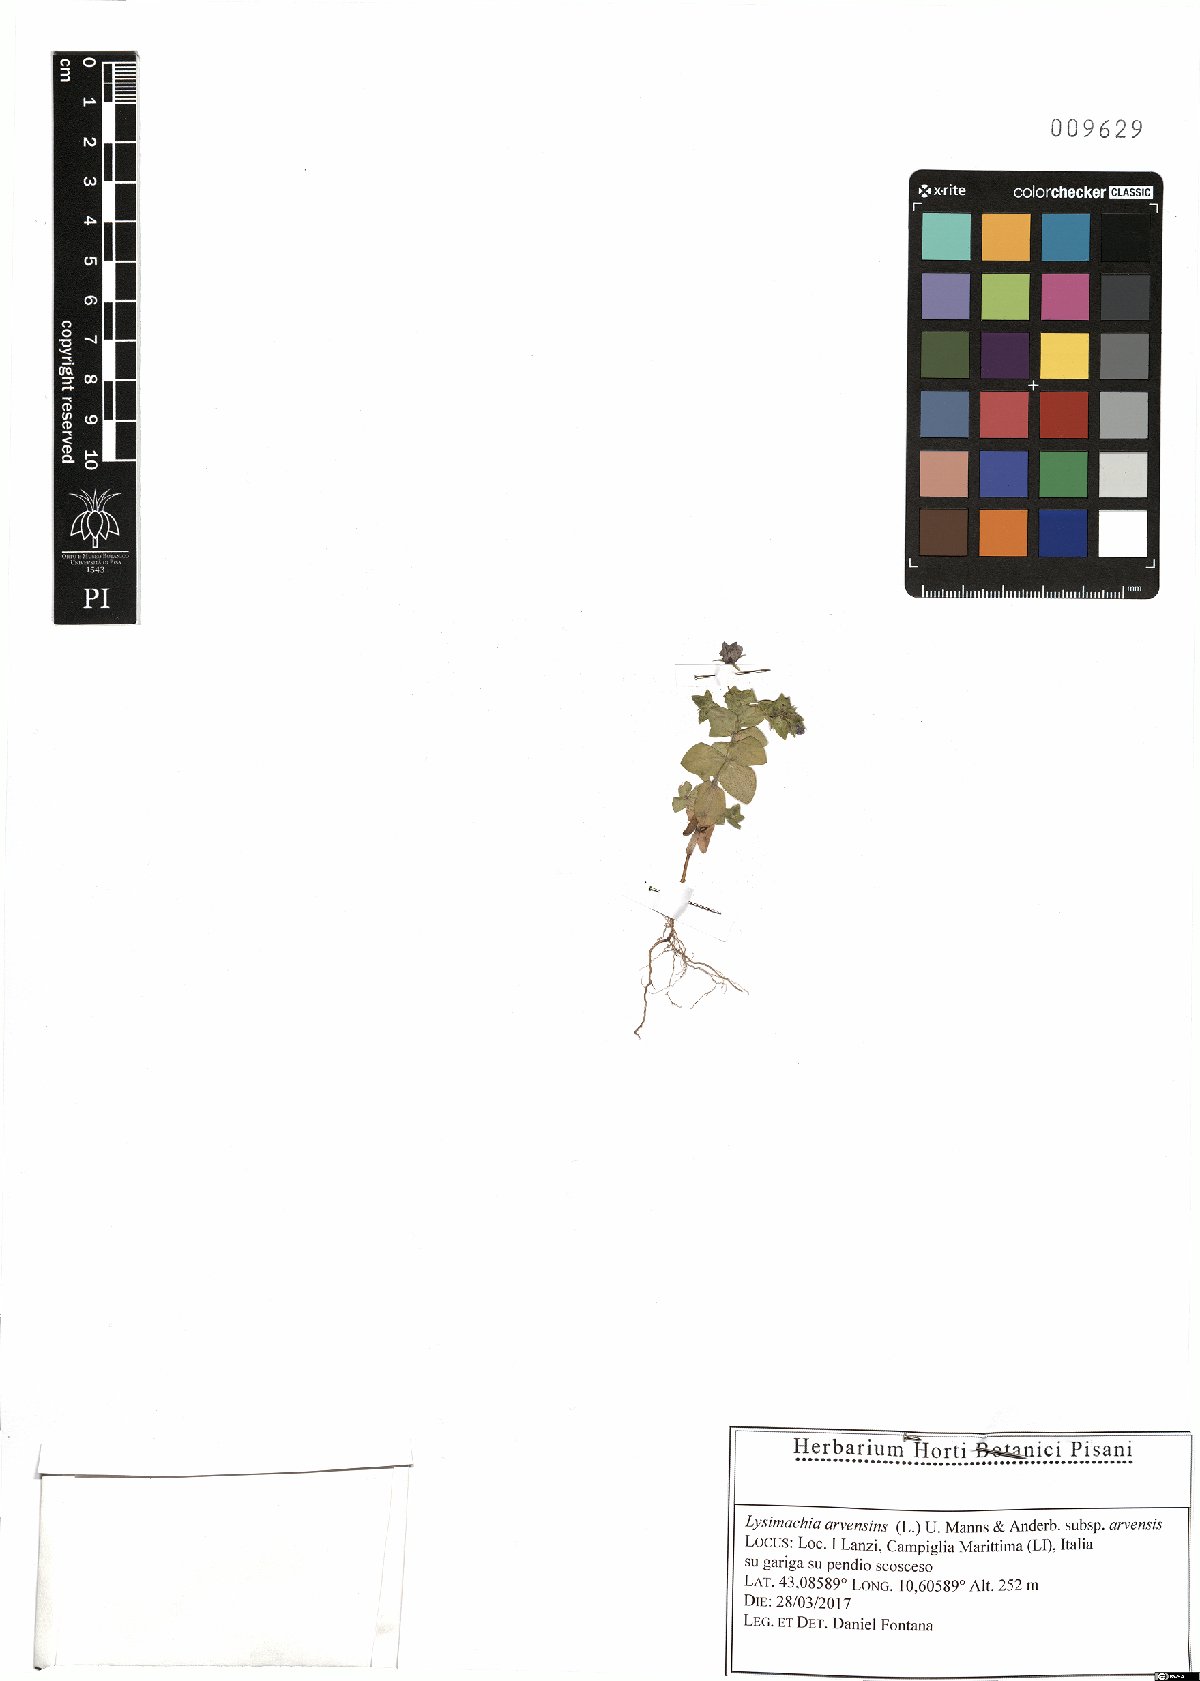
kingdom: Plantae
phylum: Tracheophyta
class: Magnoliopsida
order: Ericales
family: Primulaceae
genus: Lysimachia
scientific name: Lysimachia arvensis
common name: Scarlet pimpernel
